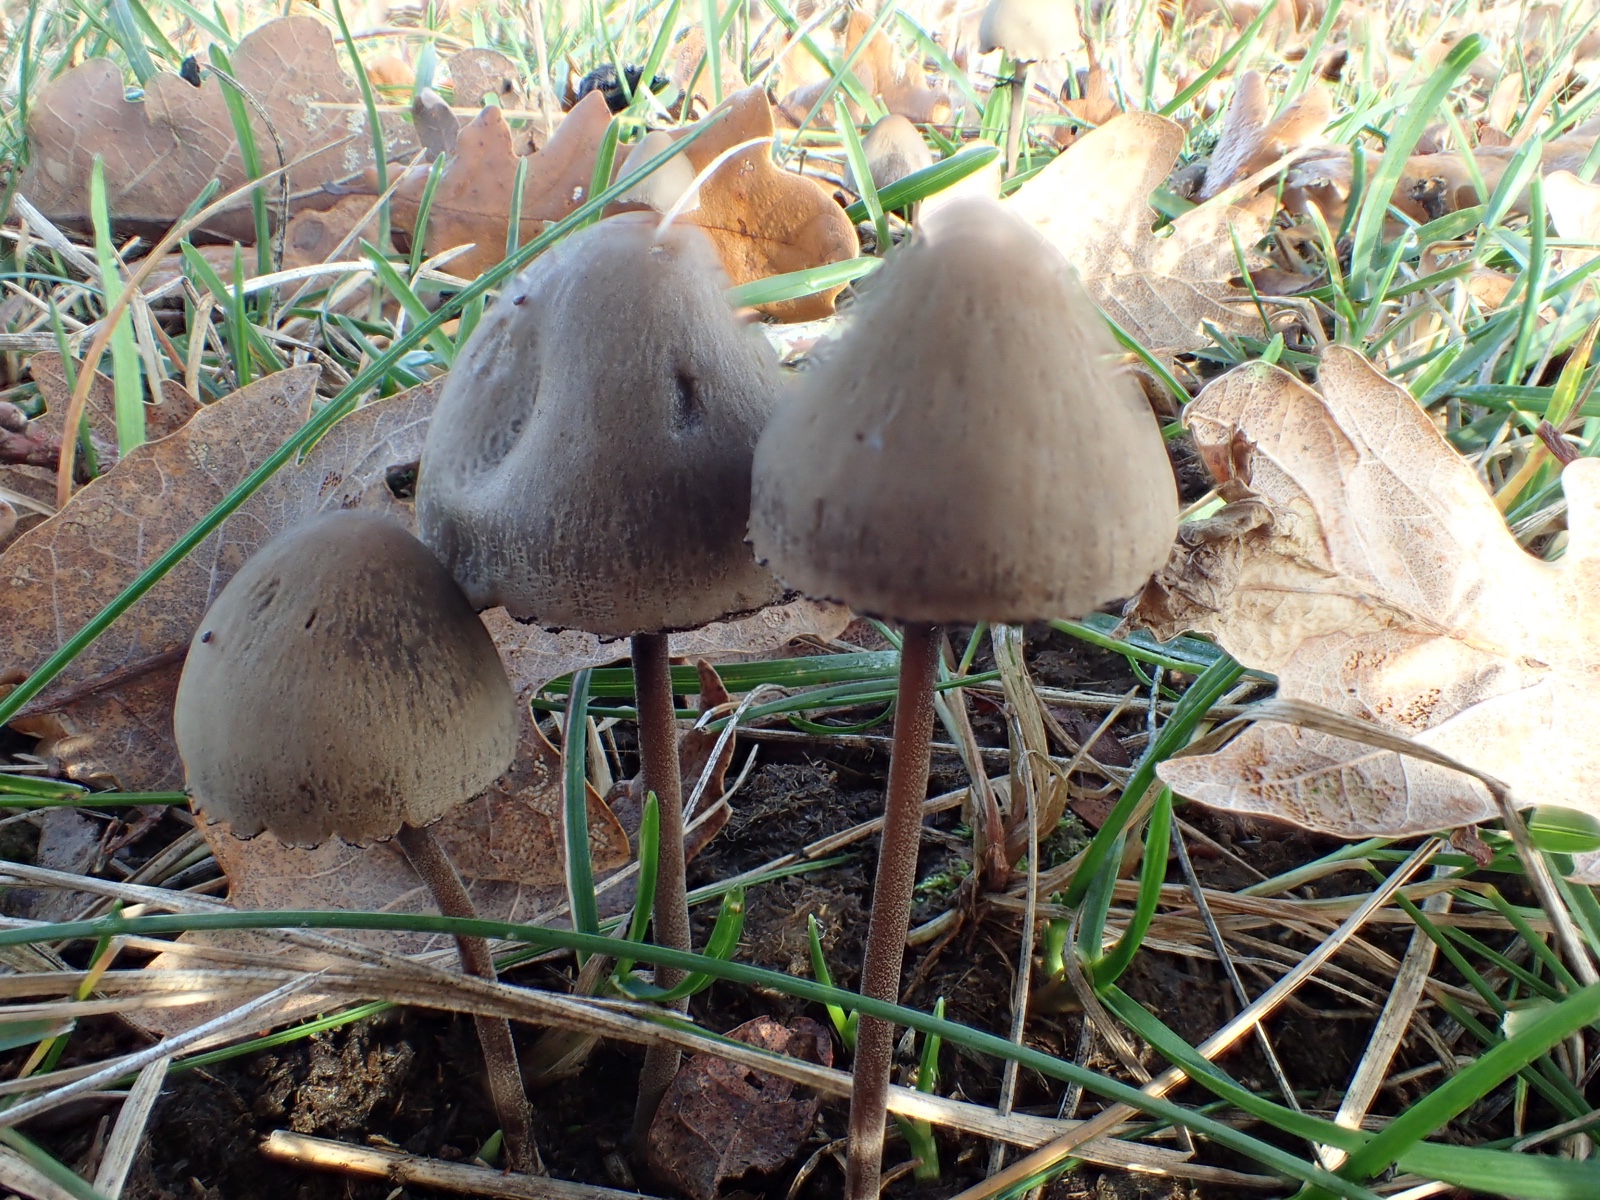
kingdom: Fungi
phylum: Basidiomycota
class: Agaricomycetes
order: Agaricales
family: Bolbitiaceae
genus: Panaeolus
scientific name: Panaeolus papilionaceus
